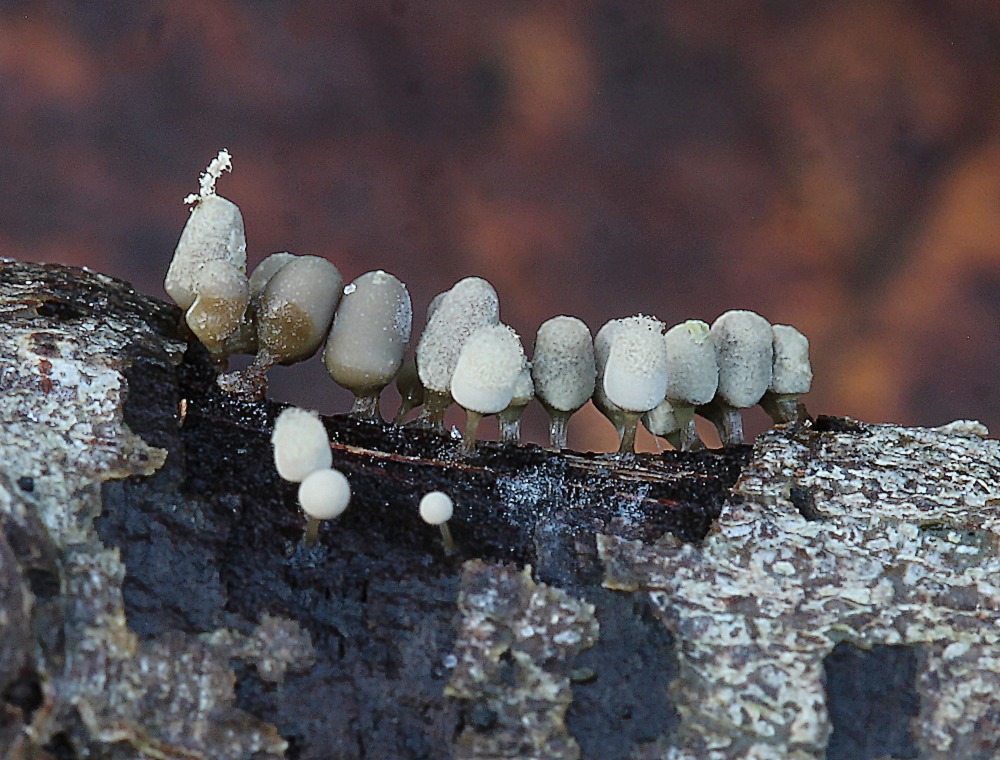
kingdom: Protozoa
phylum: Amoebozoa
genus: Arcyria
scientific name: Arcyria
